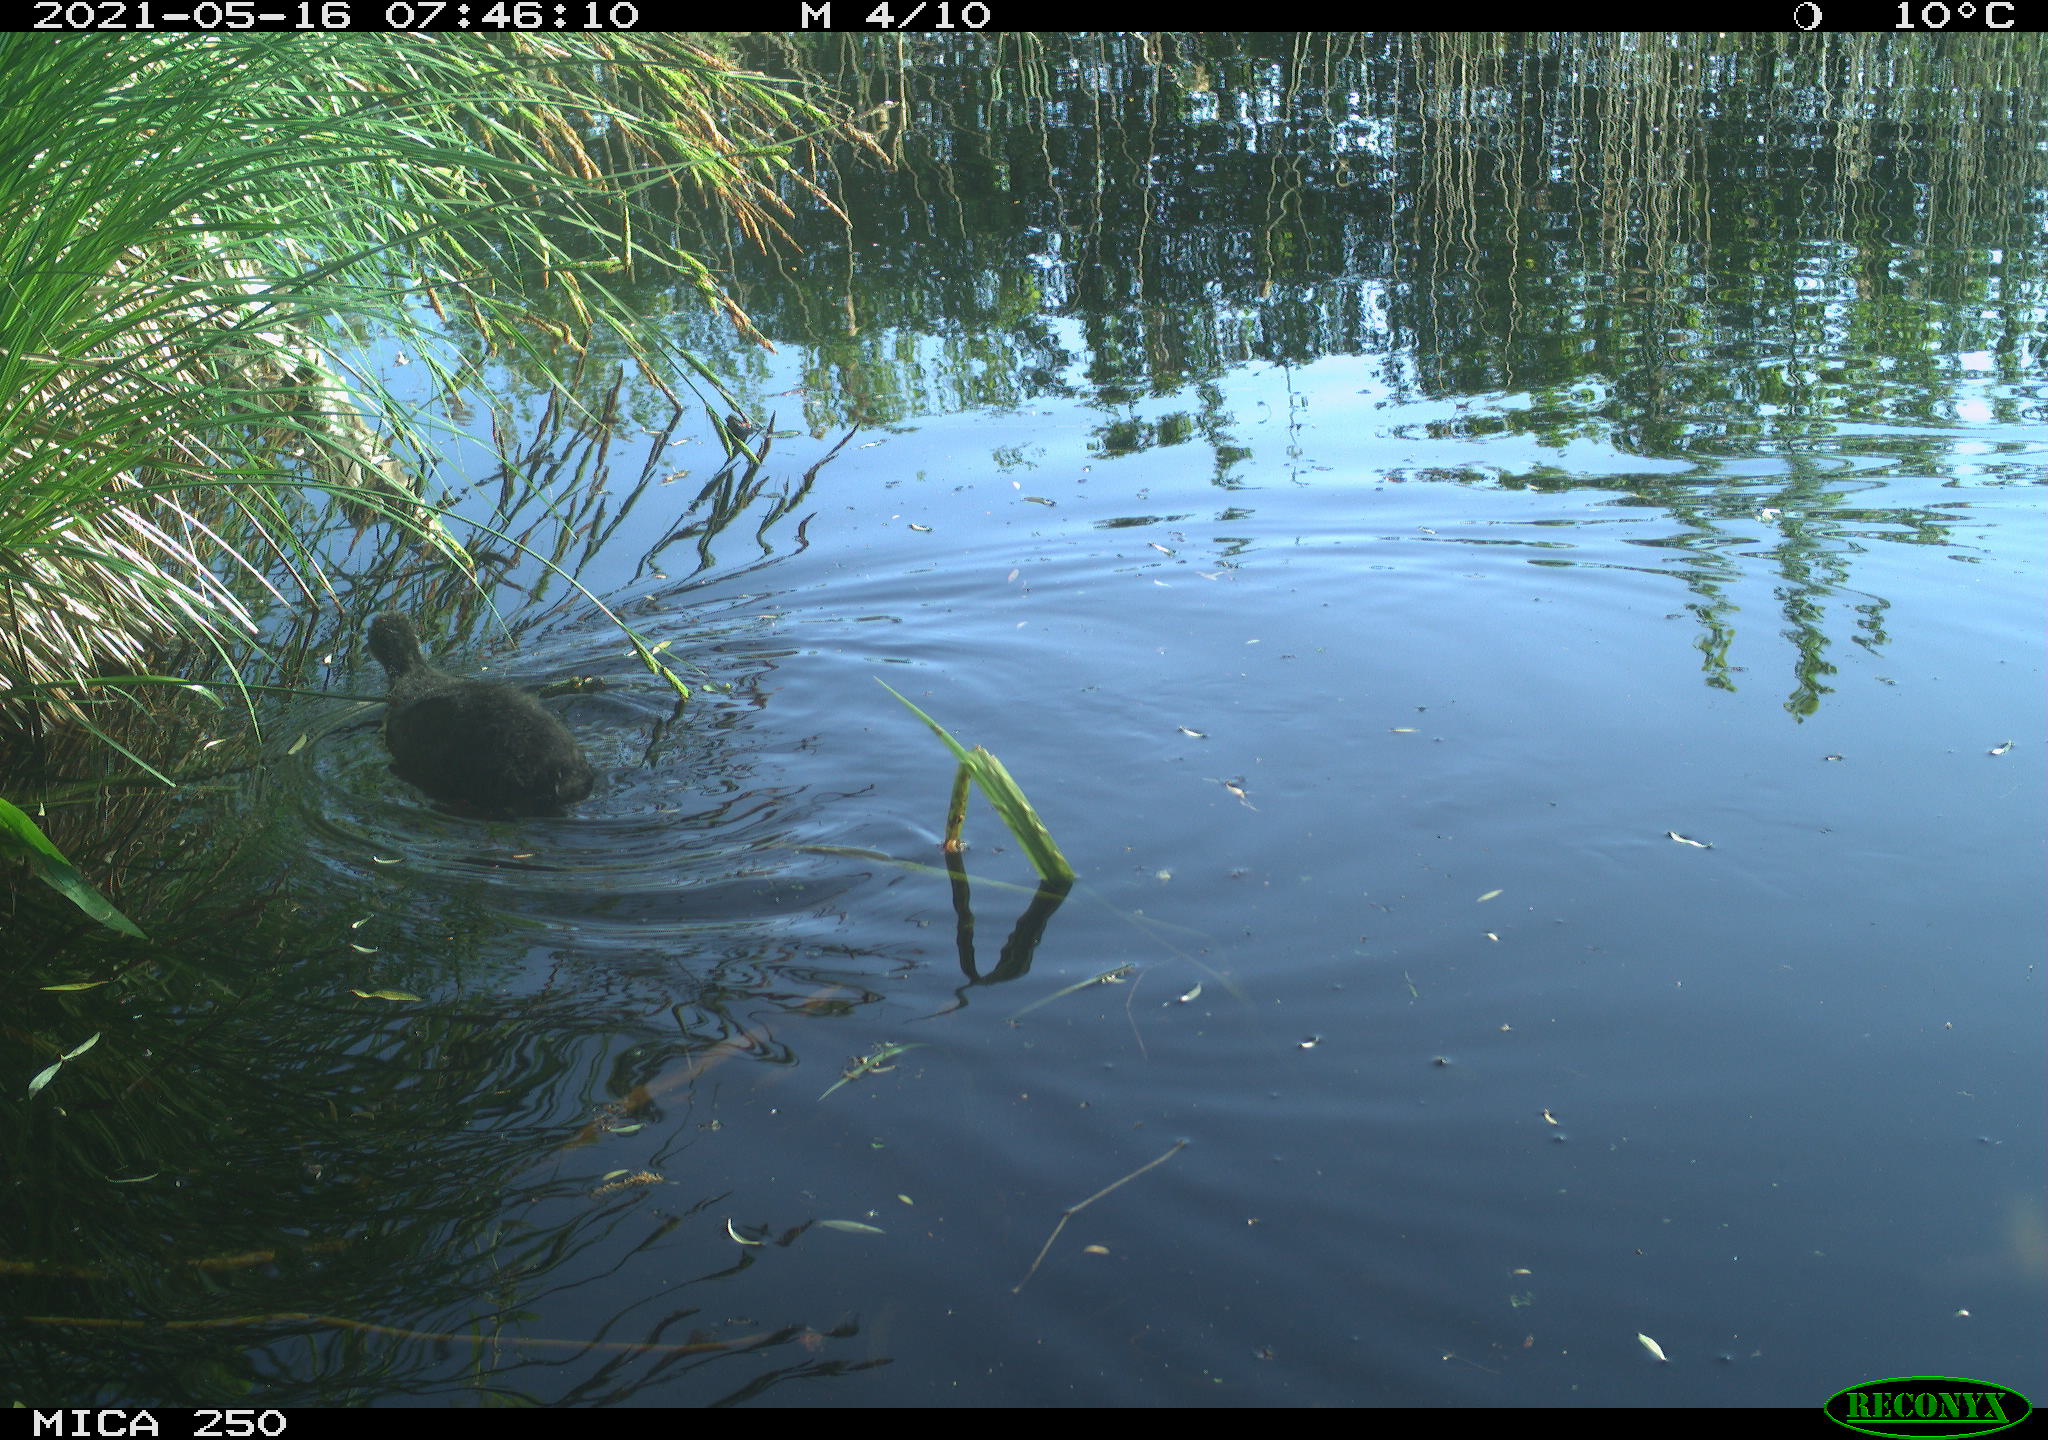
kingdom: Animalia
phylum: Chordata
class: Aves
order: Gruiformes
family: Rallidae
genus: Fulica
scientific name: Fulica atra
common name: Eurasian coot
